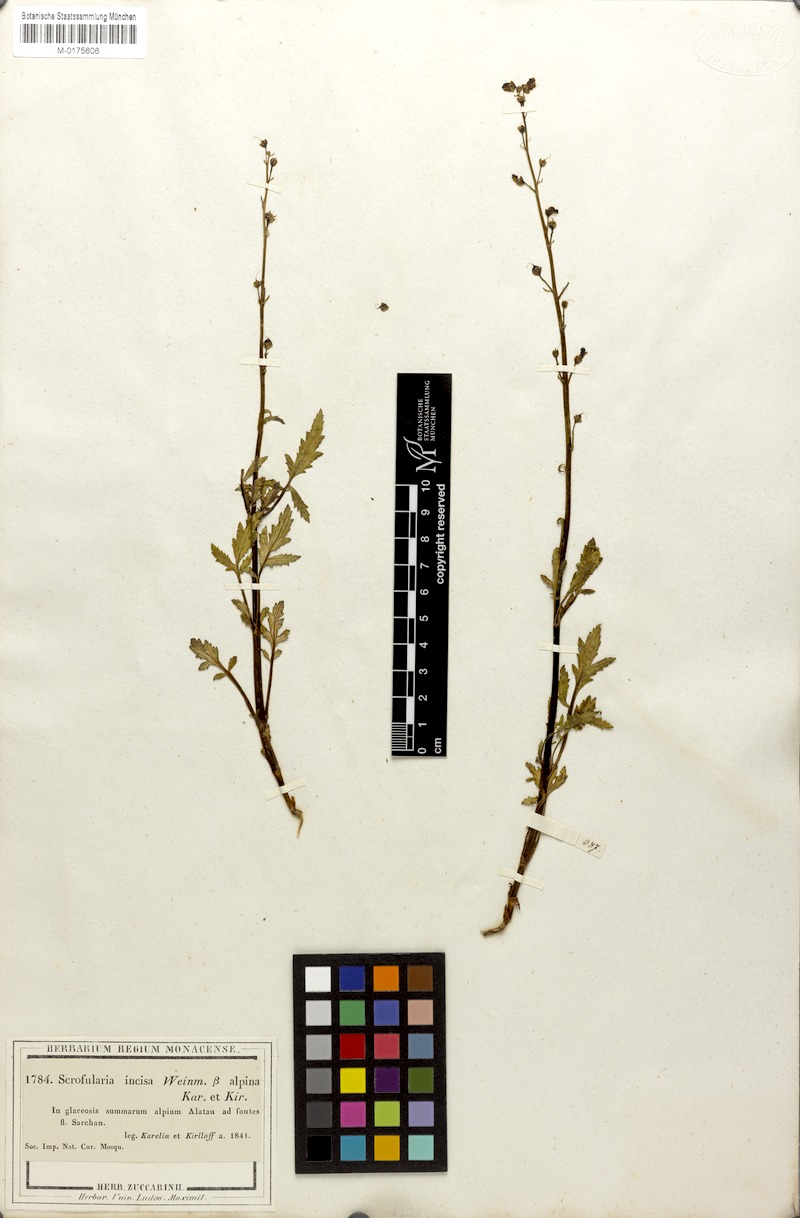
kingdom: Plantae
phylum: Tracheophyta
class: Magnoliopsida
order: Lamiales
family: Scrophulariaceae
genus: Scrophularia
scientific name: Scrophularia kiriloviana
